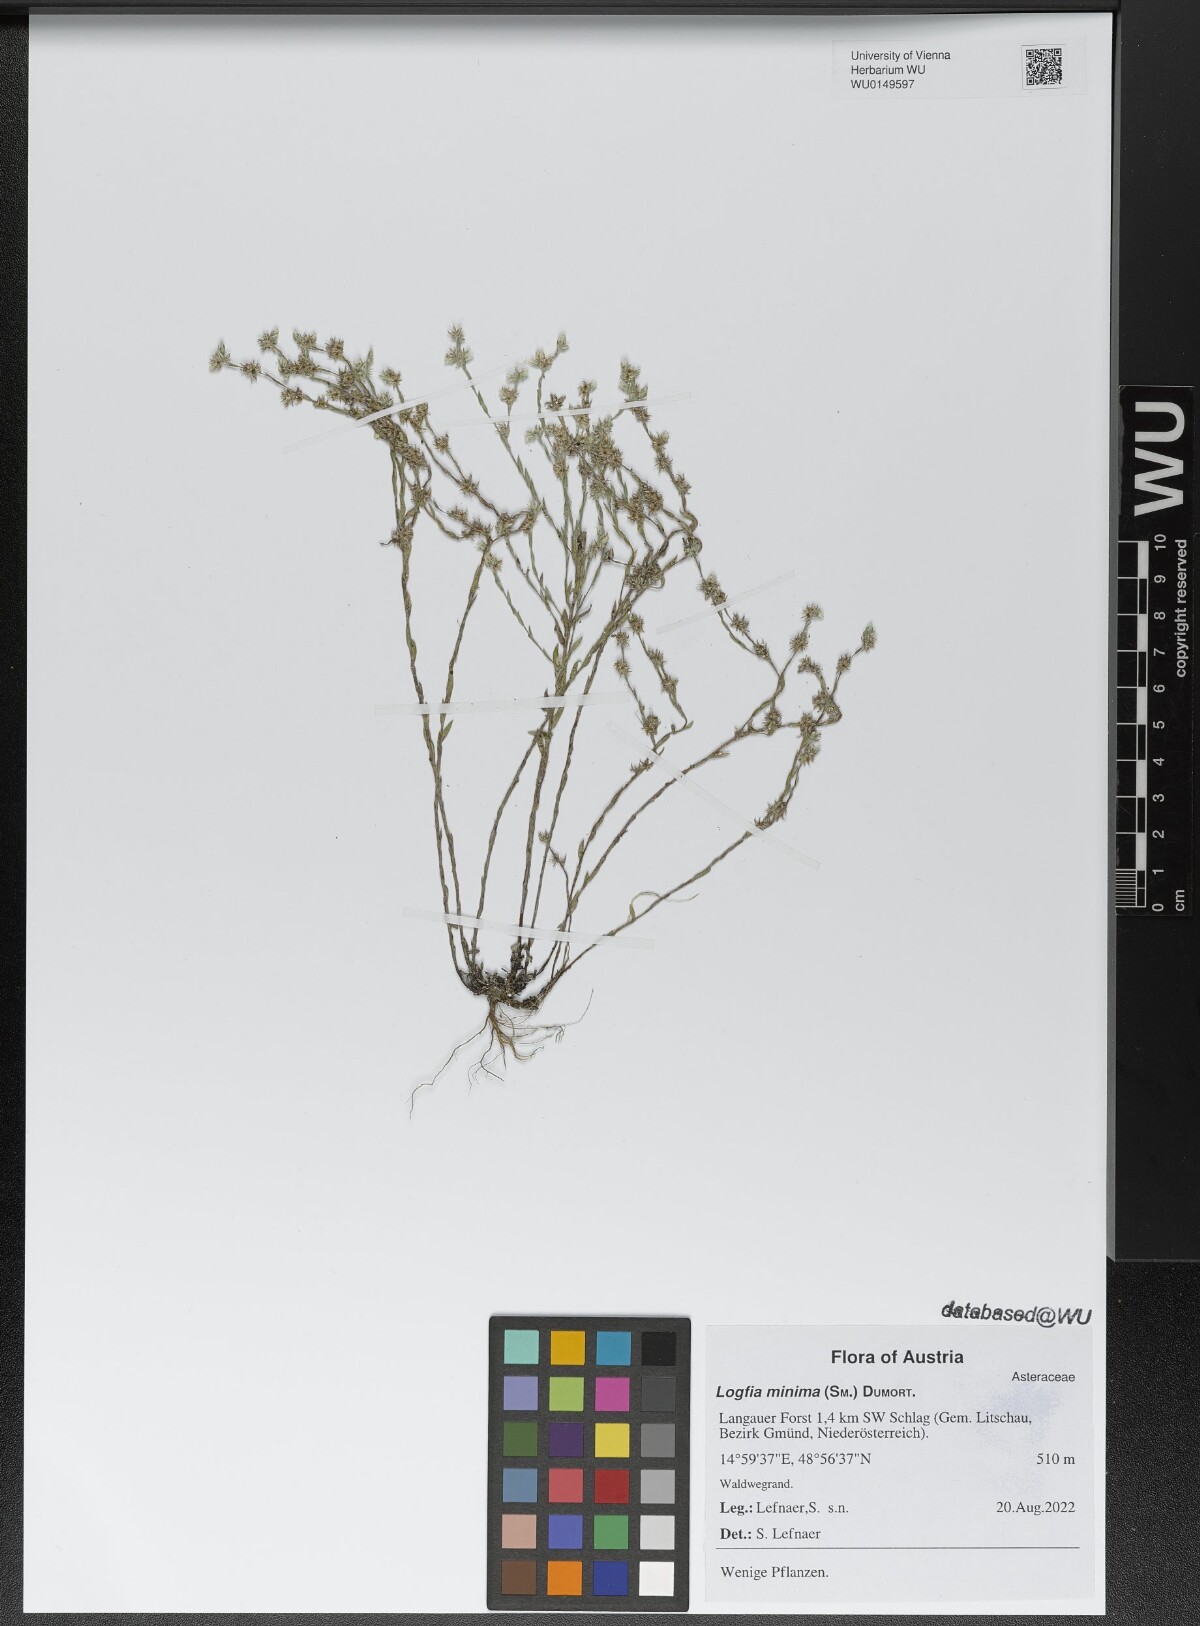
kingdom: Plantae
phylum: Tracheophyta
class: Magnoliopsida
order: Asterales
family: Asteraceae
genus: Logfia
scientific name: Logfia minima
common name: Little cottonrose
